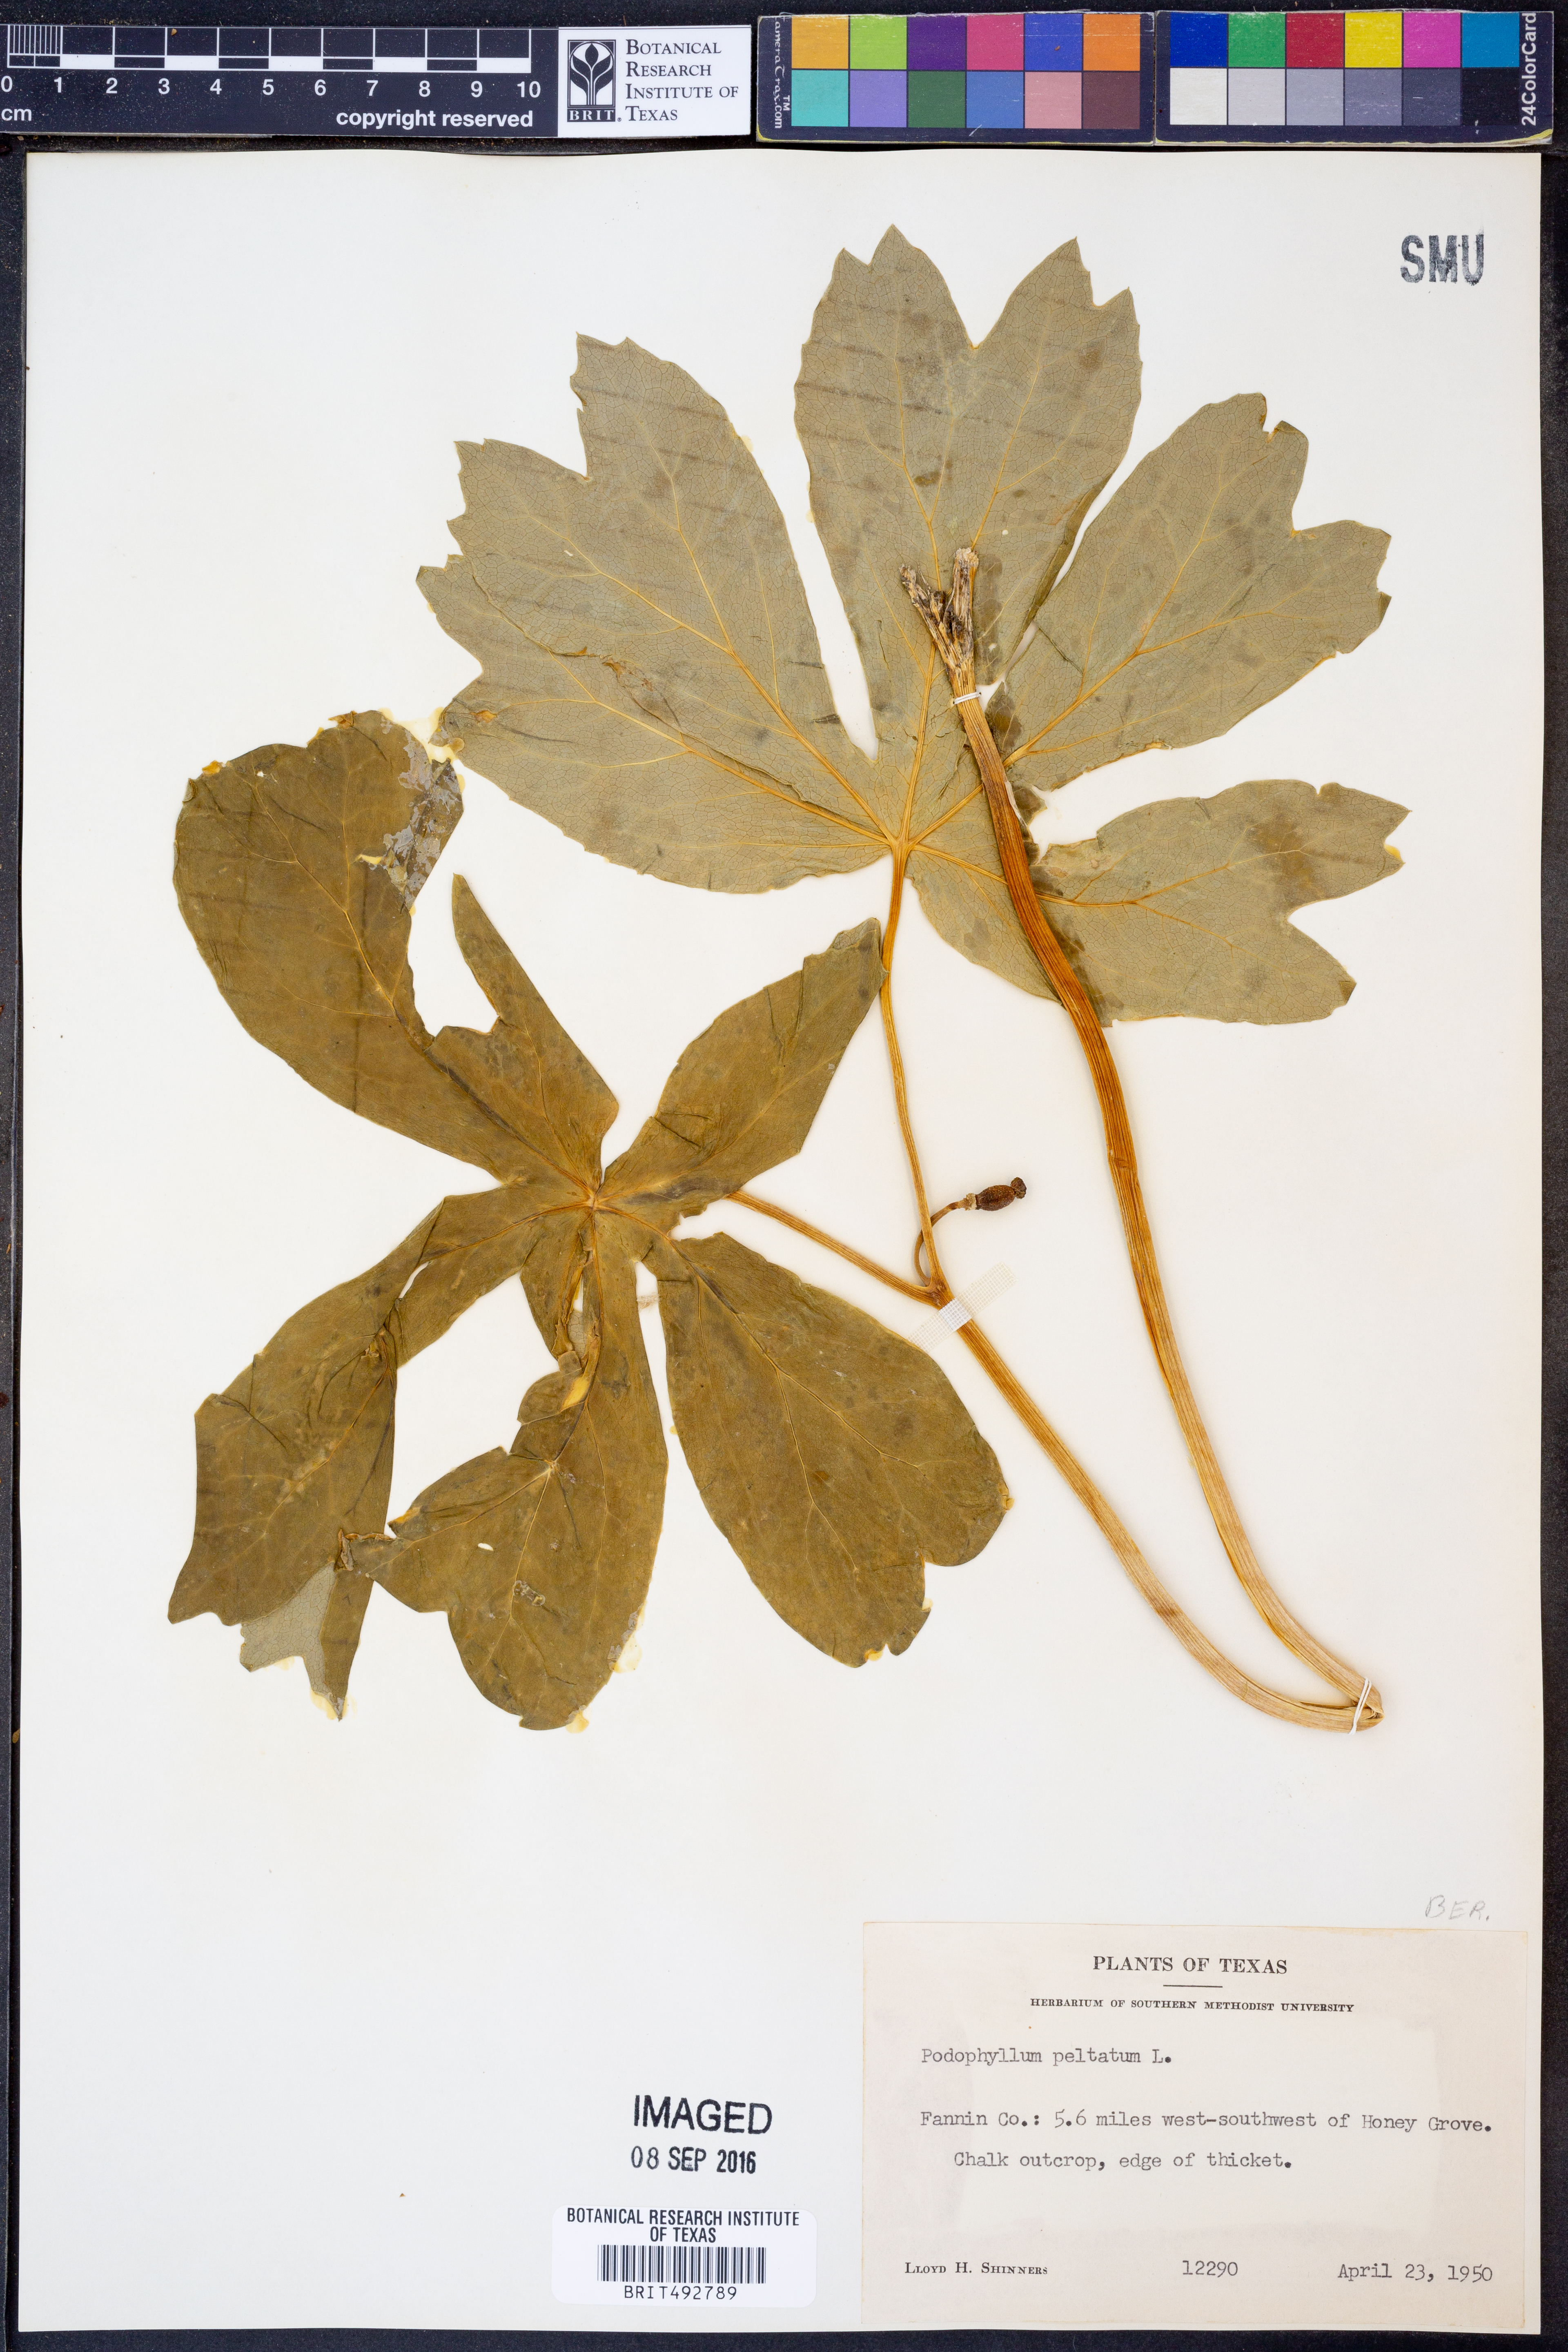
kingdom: Plantae
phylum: Tracheophyta
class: Magnoliopsida
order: Ranunculales
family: Berberidaceae
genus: Podophyllum
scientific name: Podophyllum peltatum
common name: Wild mandrake
